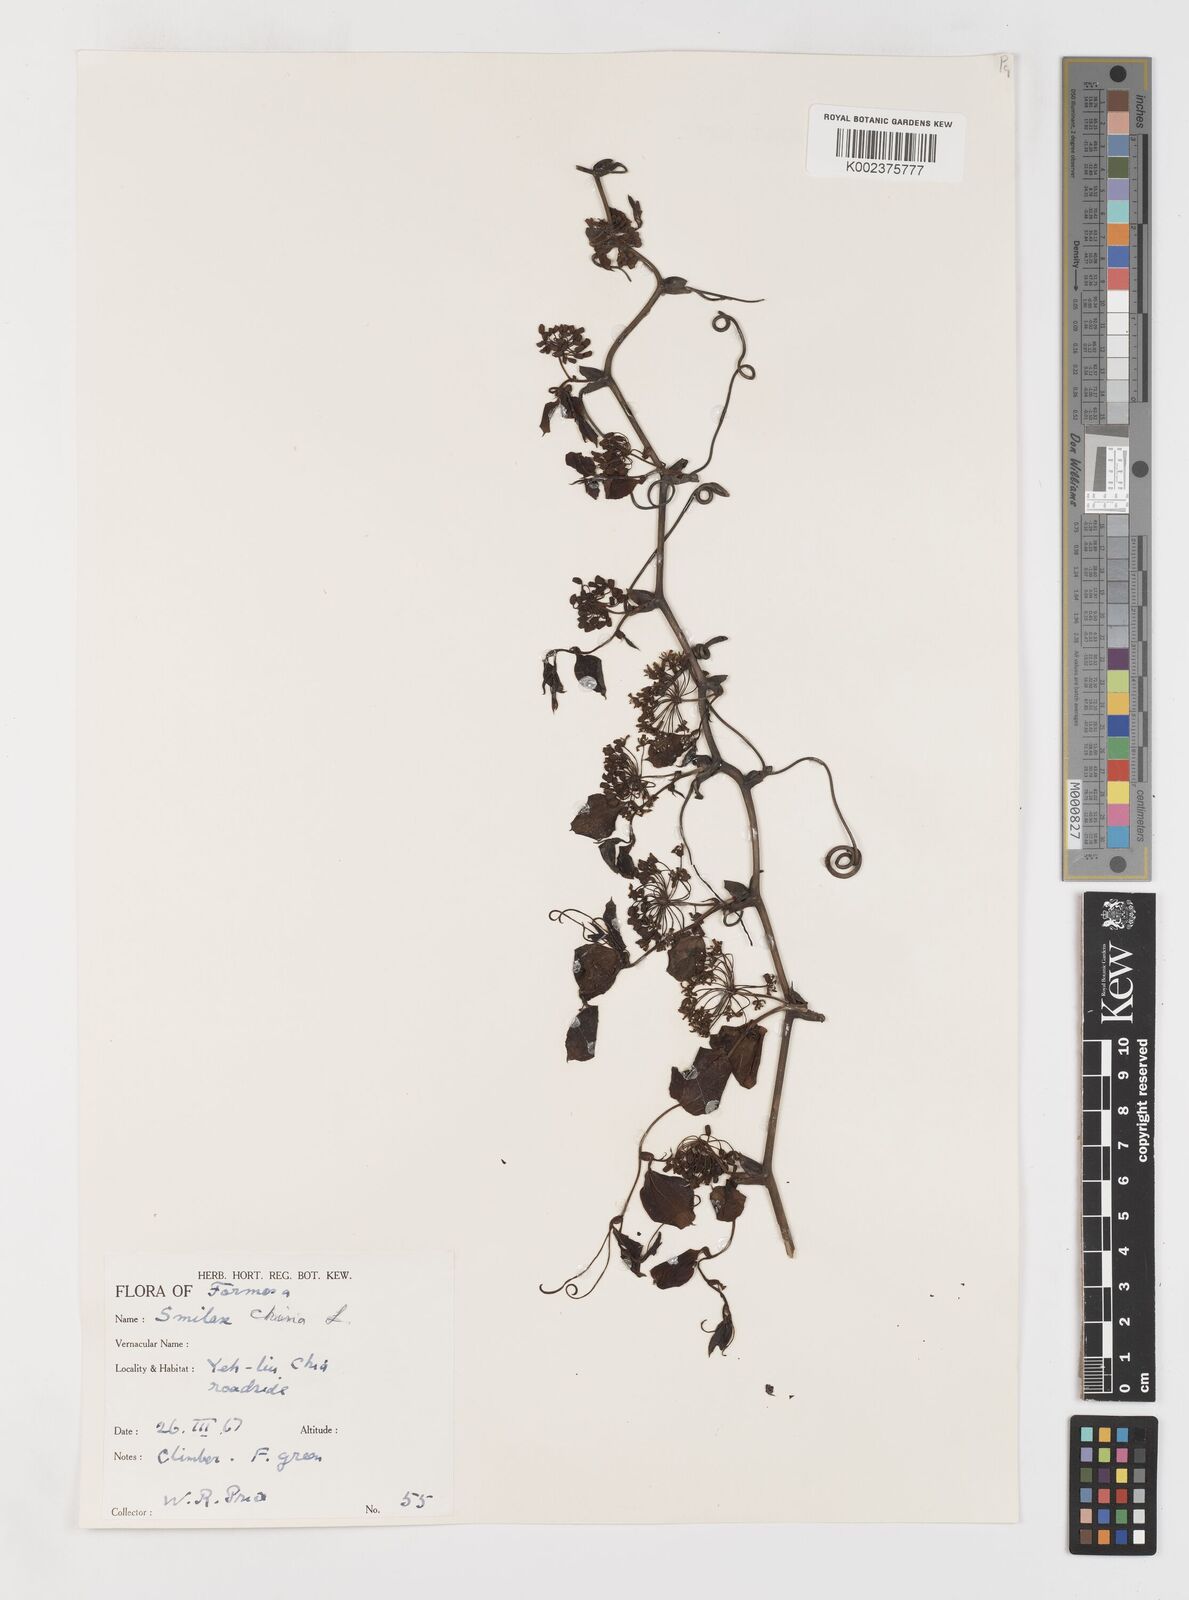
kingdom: Plantae
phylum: Tracheophyta
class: Liliopsida
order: Liliales
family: Smilacaceae
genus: Smilax
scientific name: Smilax china
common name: Chinaroot
